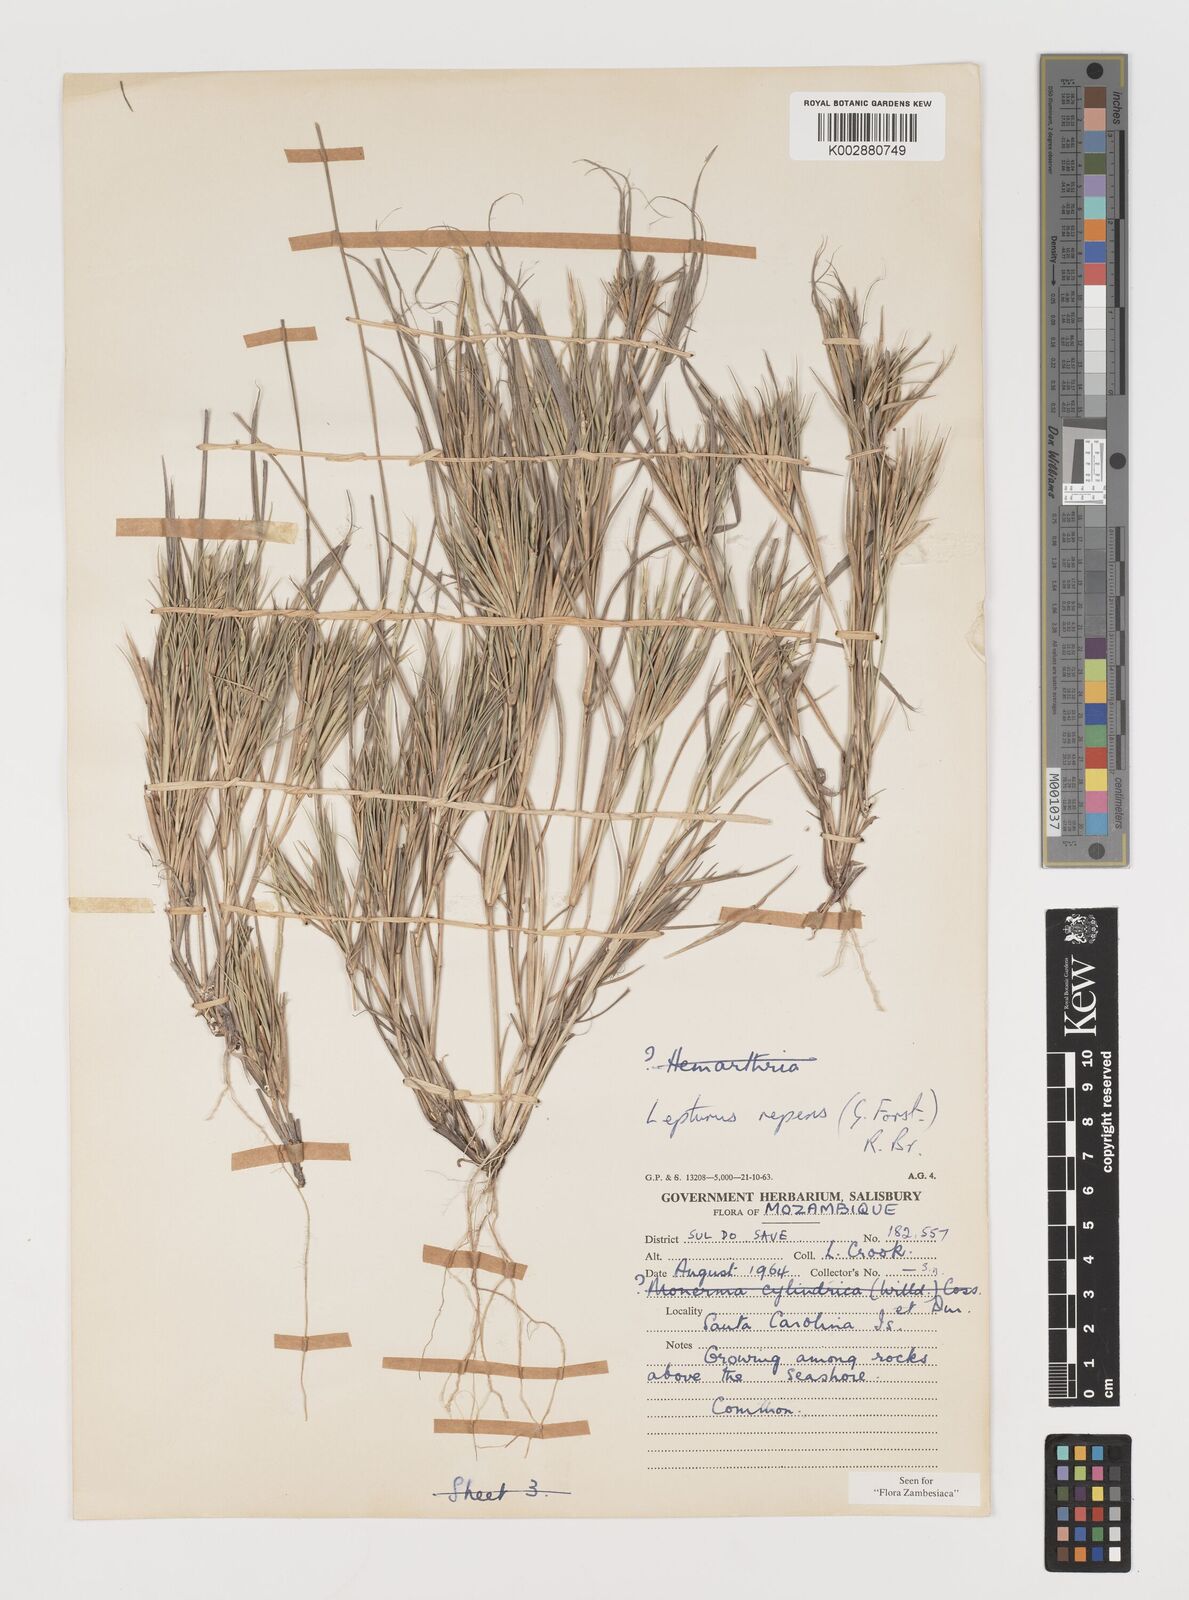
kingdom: Plantae
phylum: Tracheophyta
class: Liliopsida
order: Poales
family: Poaceae
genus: Lepturus
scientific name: Lepturus repens
